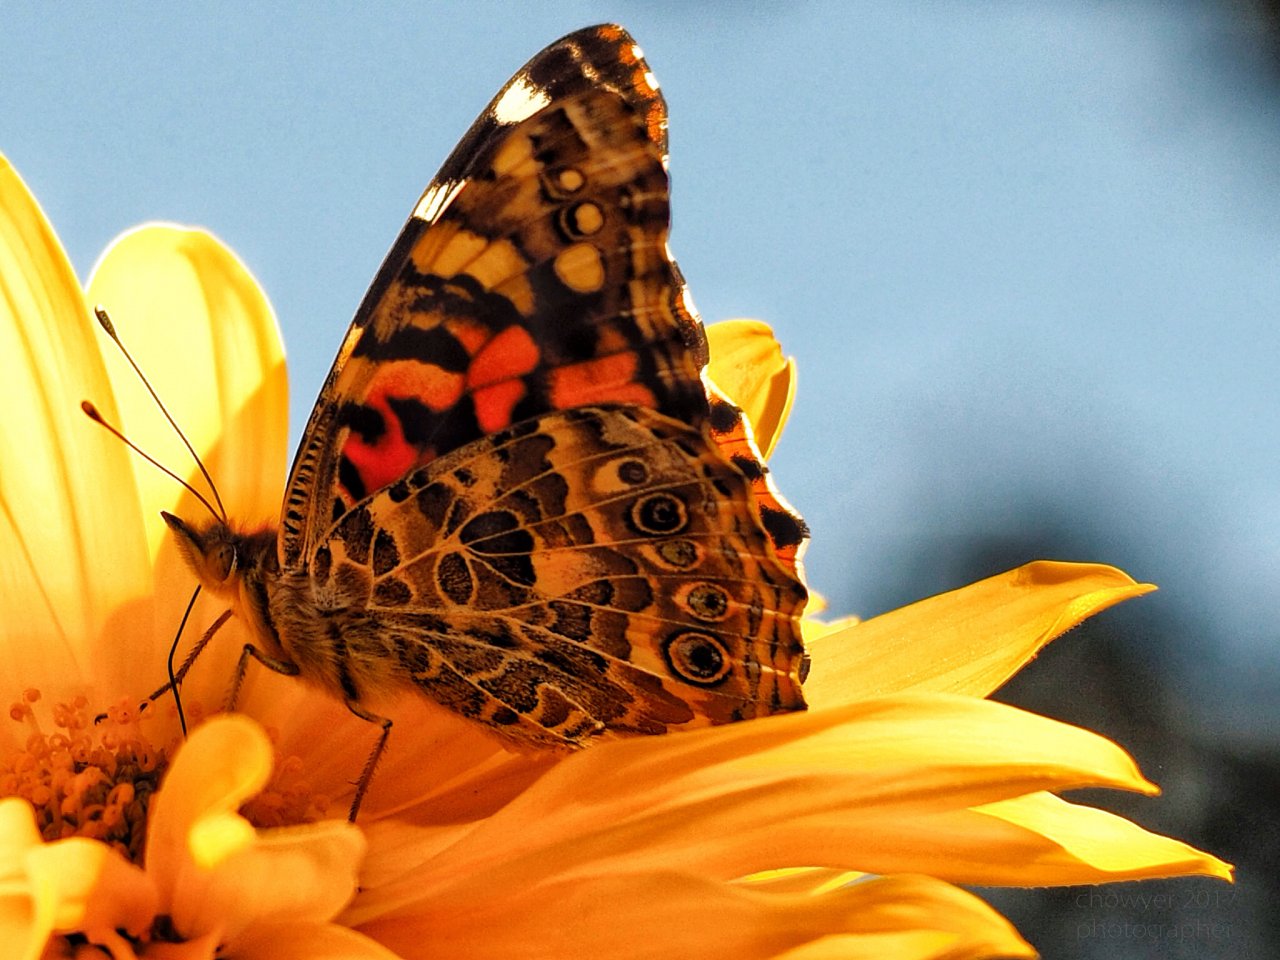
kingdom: Animalia
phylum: Arthropoda
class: Insecta
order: Lepidoptera
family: Nymphalidae
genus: Vanessa
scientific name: Vanessa cardui
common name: Painted Lady
